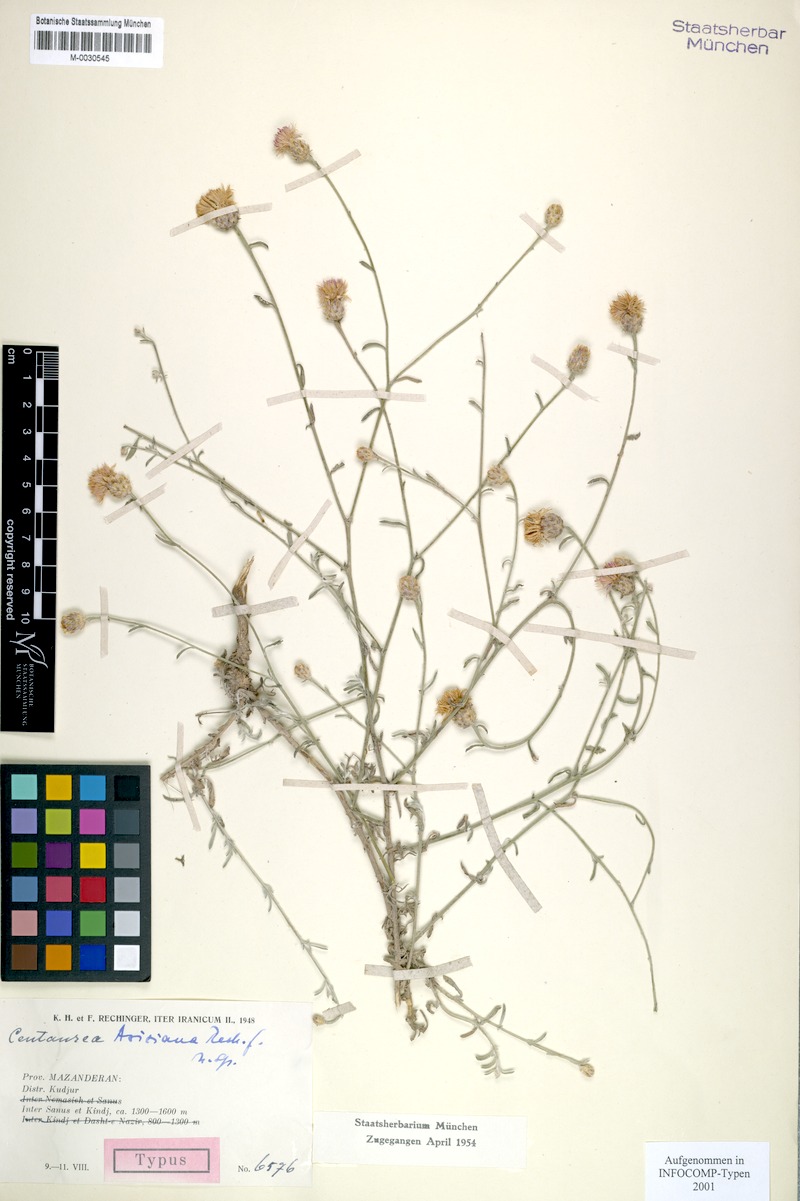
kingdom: Plantae
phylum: Tracheophyta
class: Magnoliopsida
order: Asterales
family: Asteraceae
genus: Centaurea
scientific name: Centaurea aziziana
